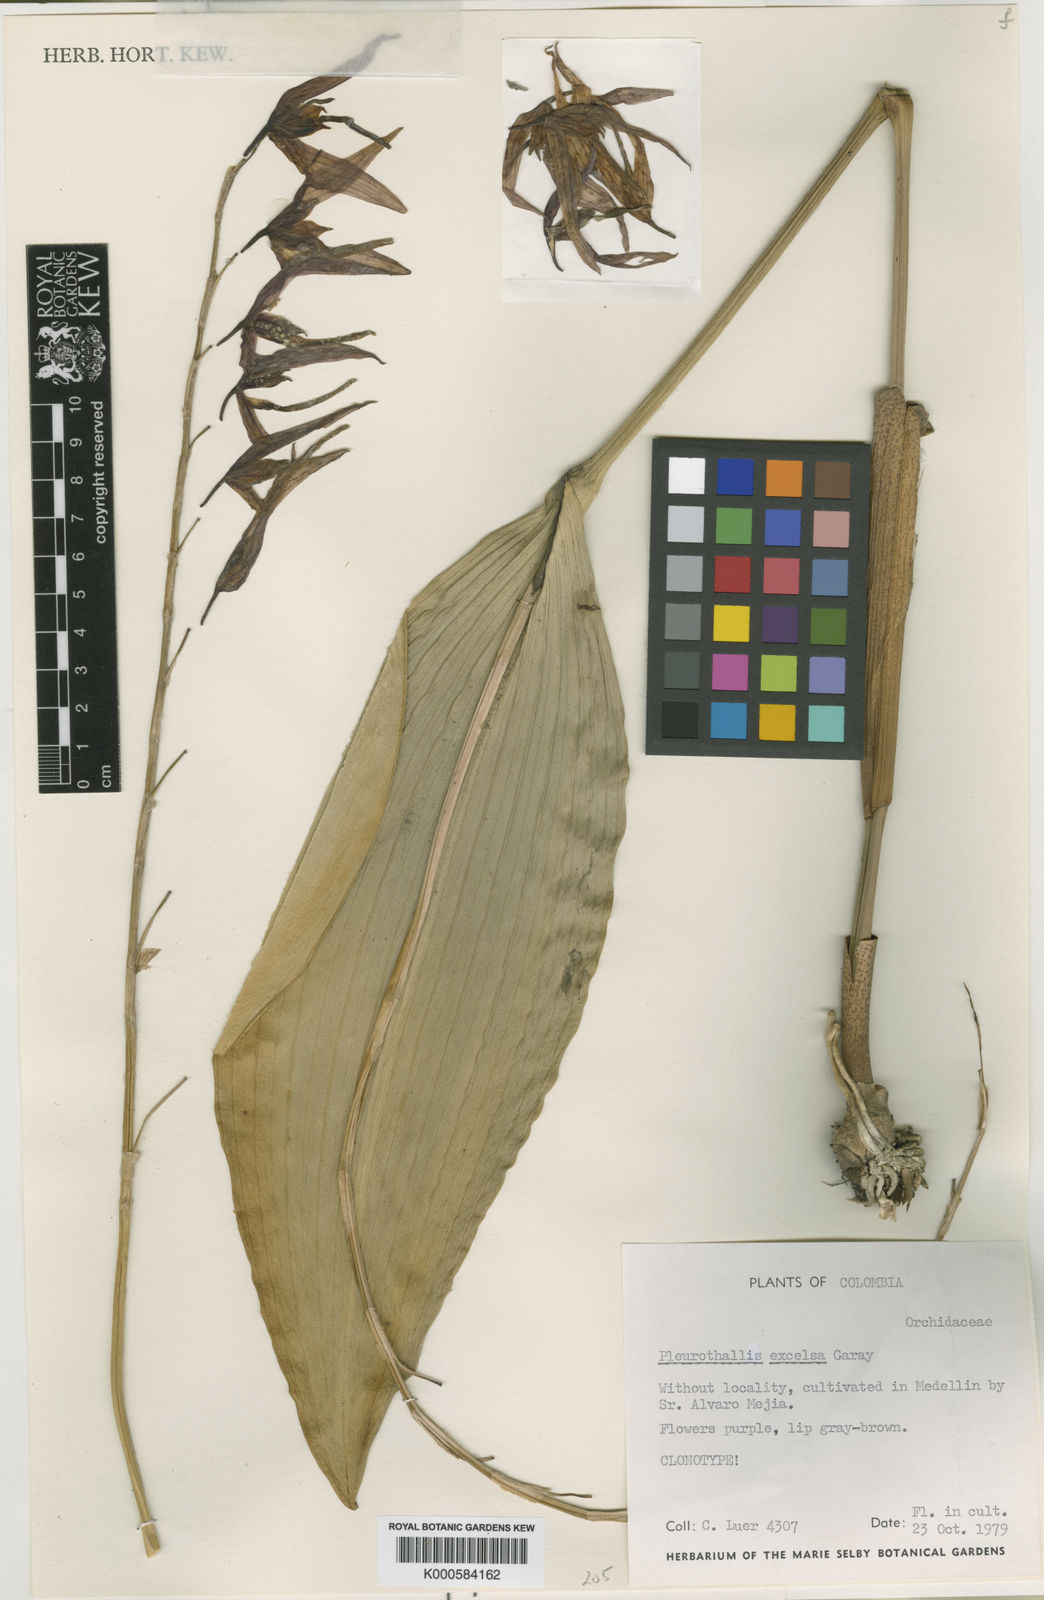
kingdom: Plantae
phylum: Tracheophyta
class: Liliopsida
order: Asparagales
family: Orchidaceae
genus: Stelis
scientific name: Stelis excelsa
